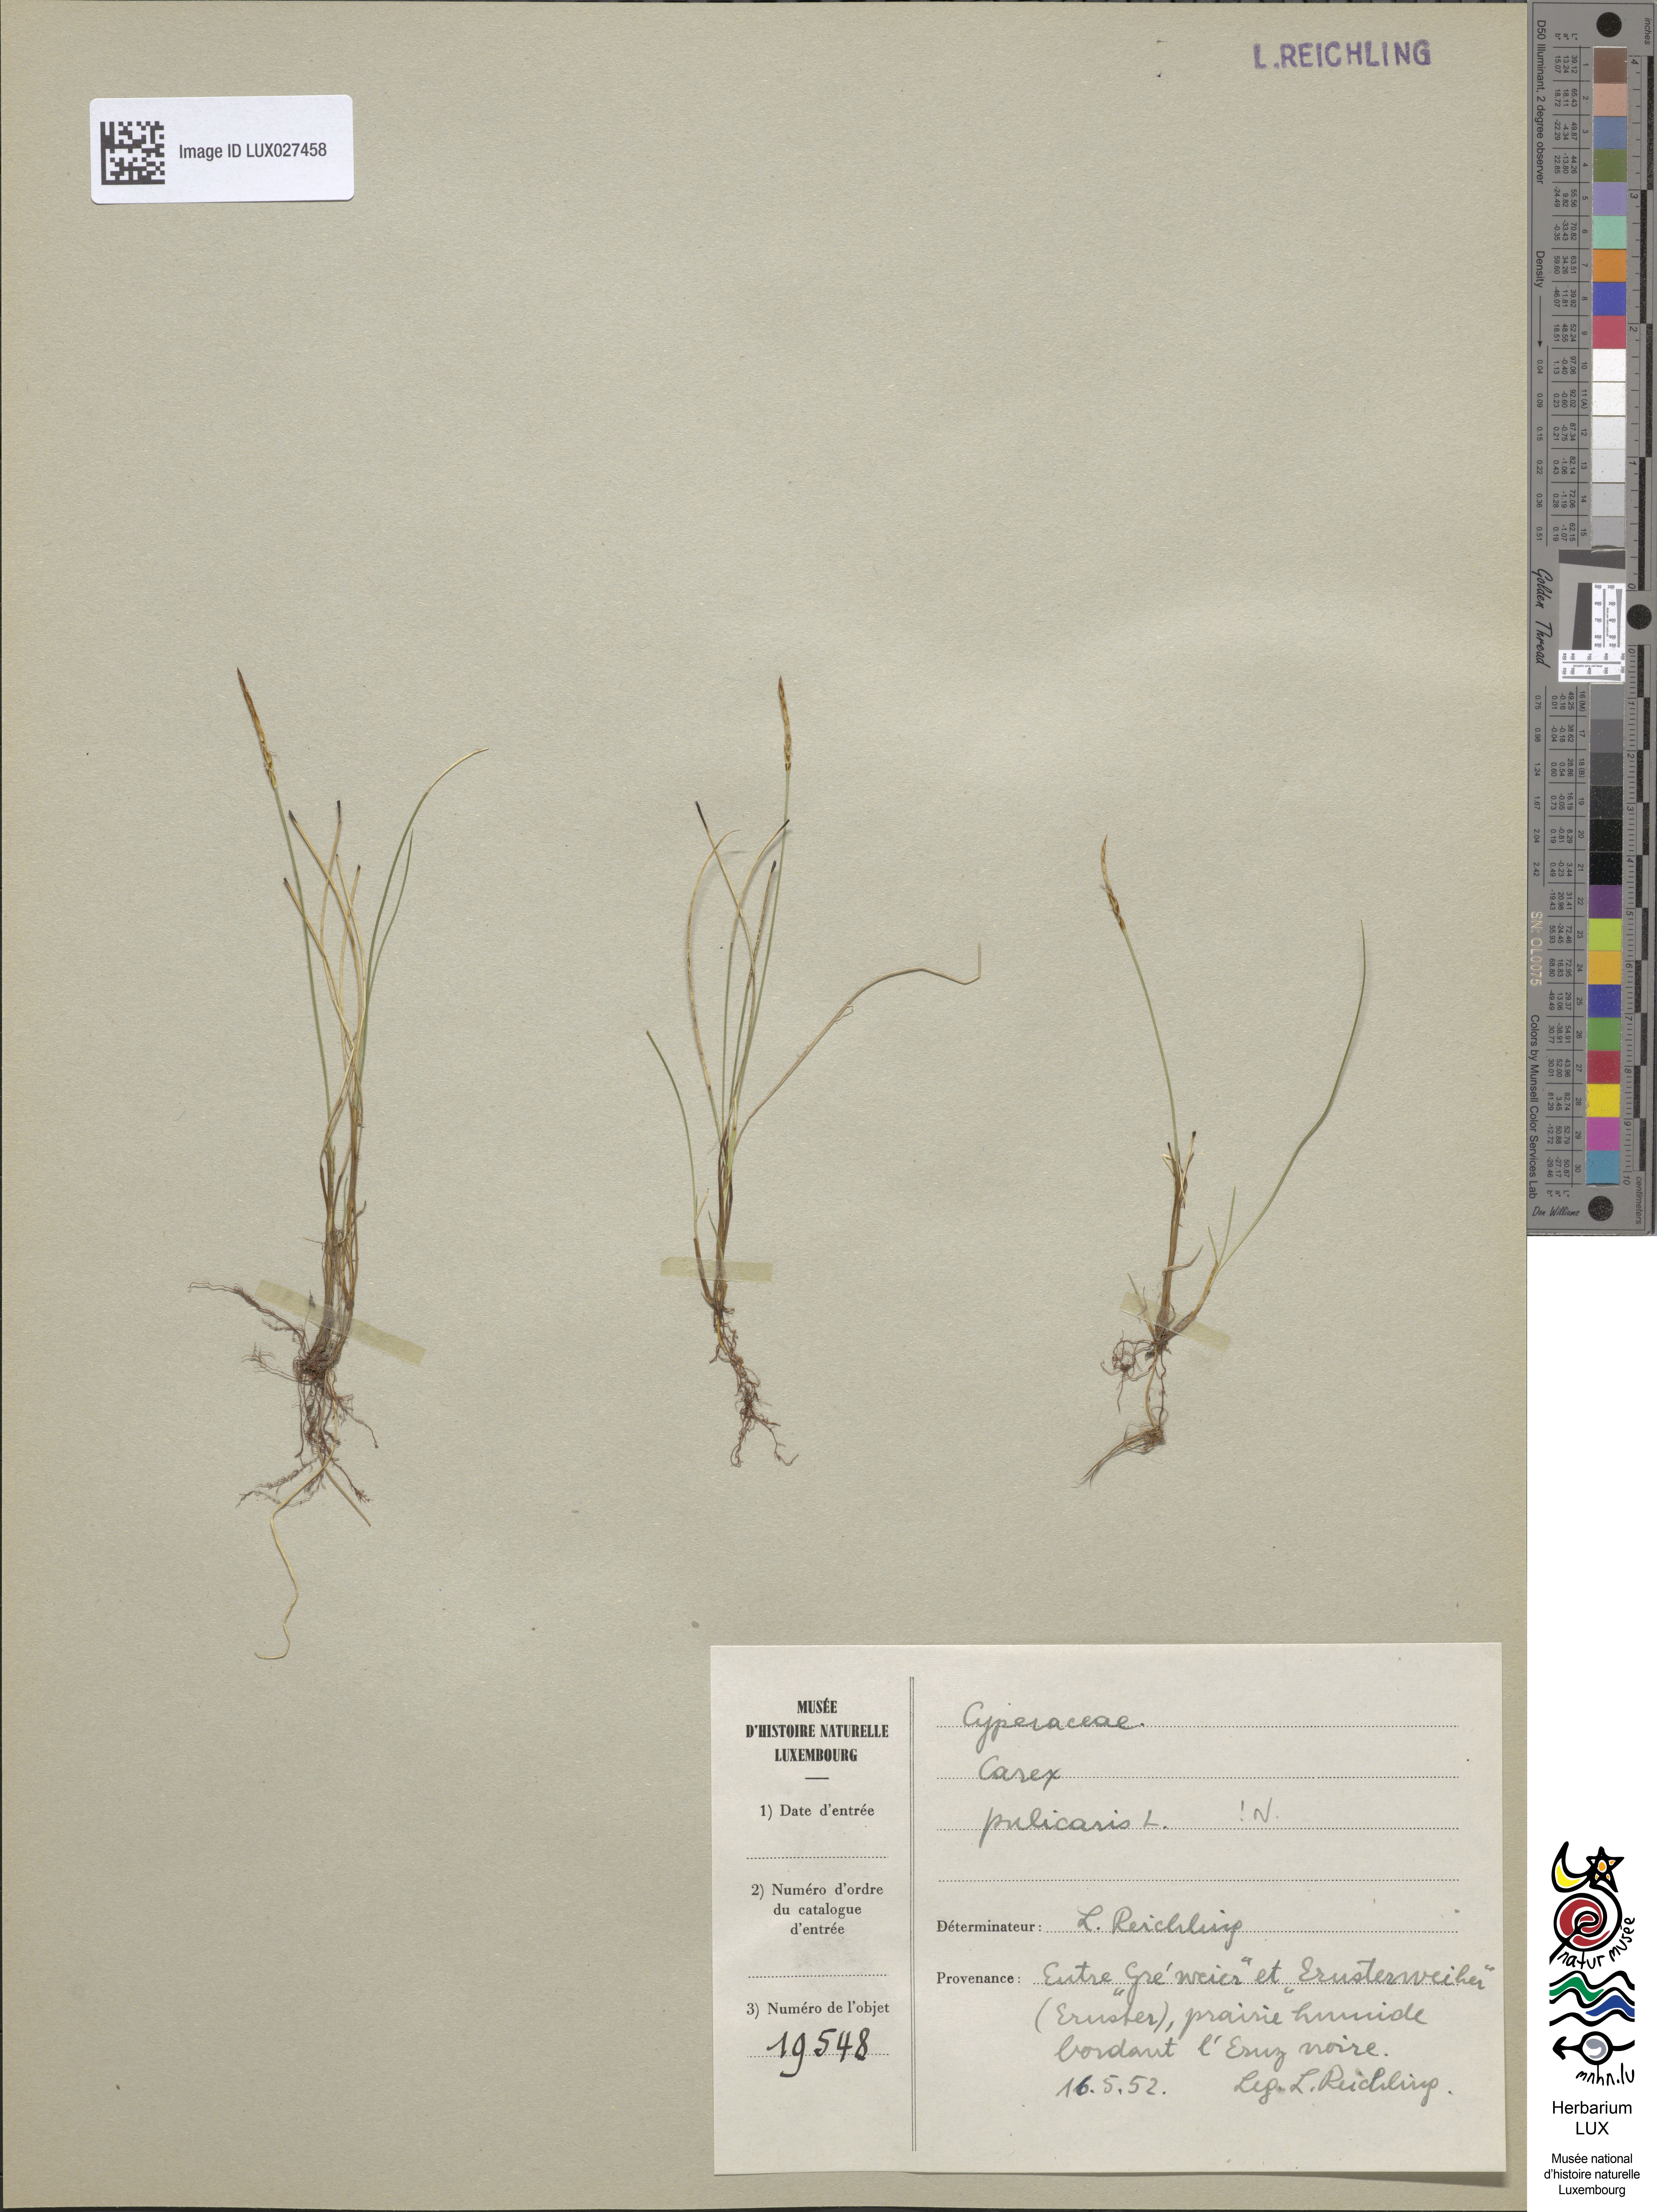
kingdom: Plantae
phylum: Tracheophyta
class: Liliopsida
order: Poales
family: Cyperaceae
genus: Carex
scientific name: Carex pulicaris
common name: Flea sedge
